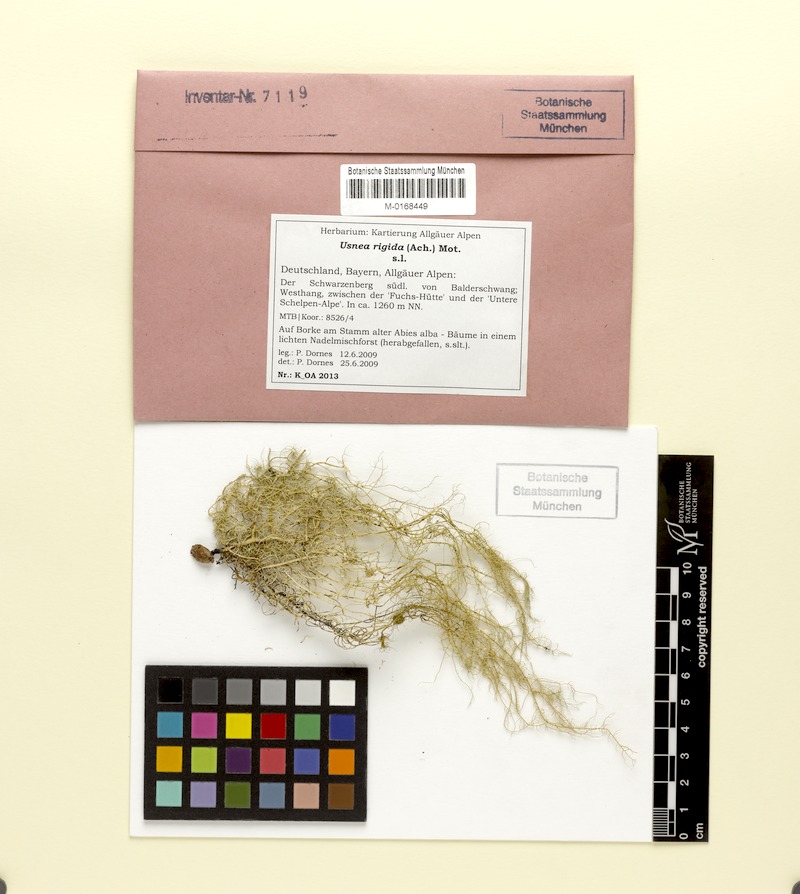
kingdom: Fungi
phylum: Ascomycota
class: Lecanoromycetes
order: Lecanorales
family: Parmeliaceae
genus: Usnea
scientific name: Usnea quasirigida
